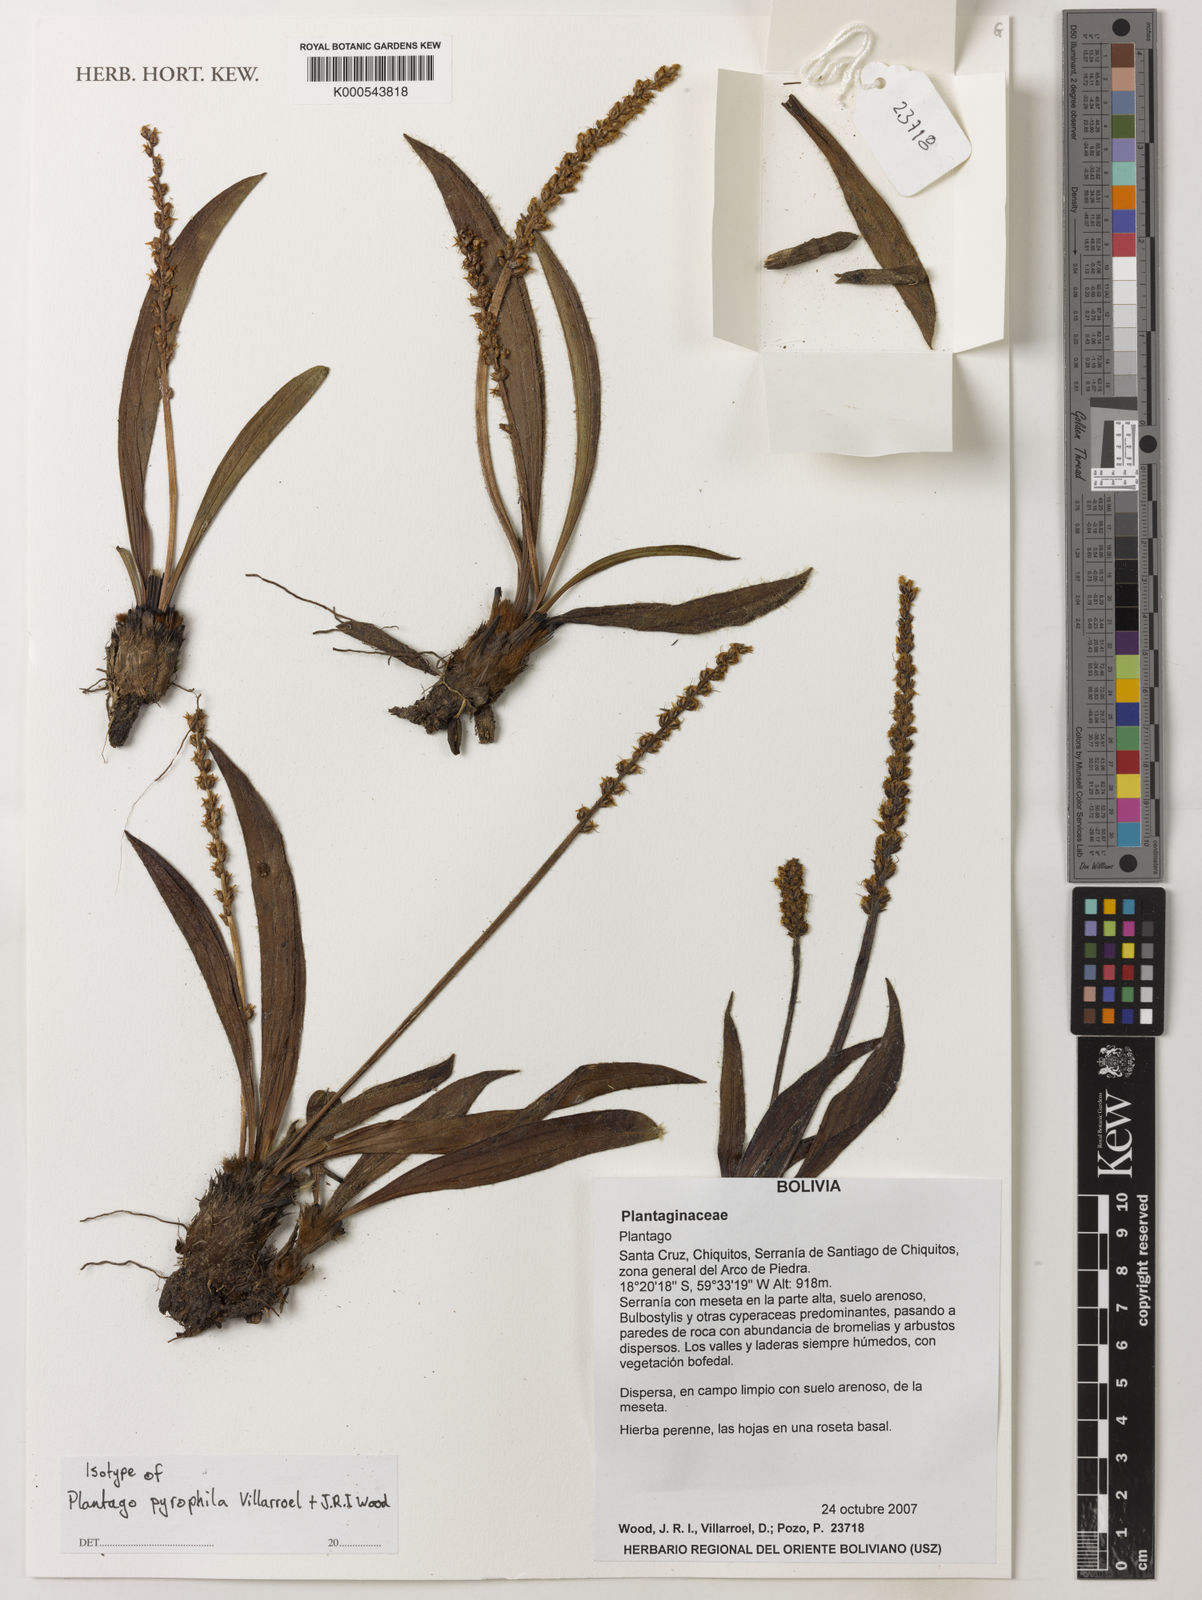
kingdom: Plantae
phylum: Tracheophyta
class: Magnoliopsida
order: Lamiales
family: Plantaginaceae
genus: Plantago
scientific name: Plantago pyrophila
